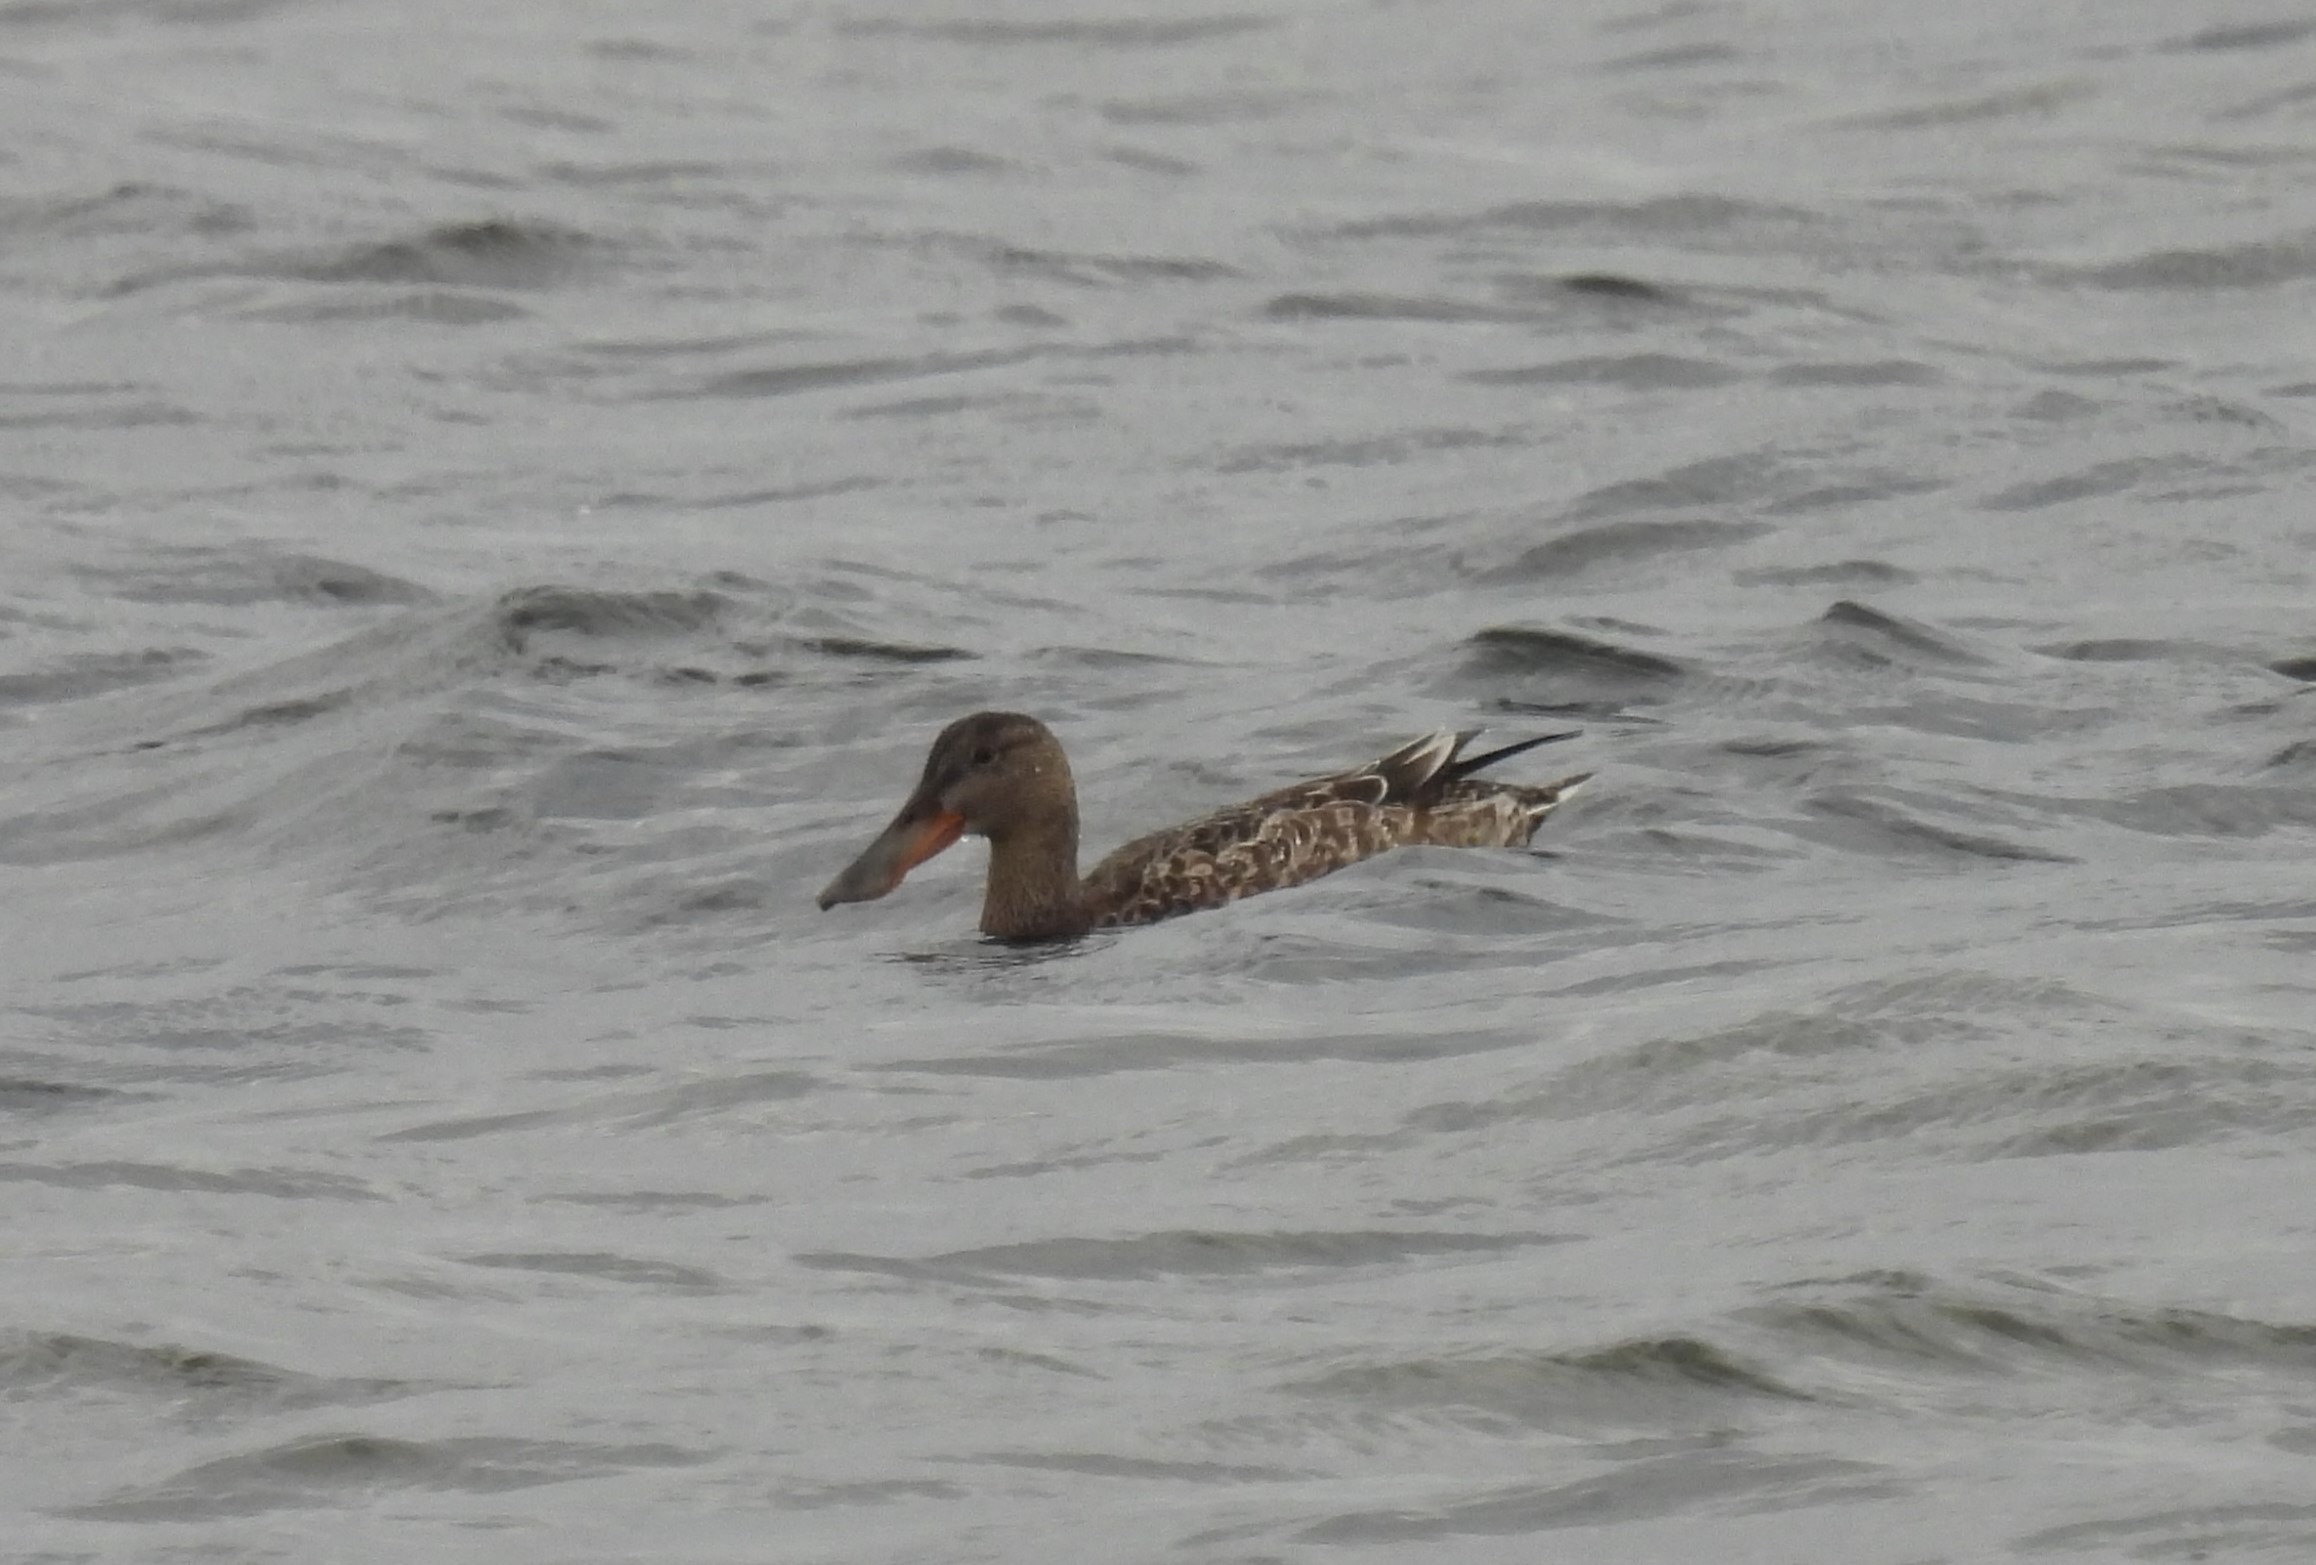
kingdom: Animalia
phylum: Chordata
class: Aves
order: Anseriformes
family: Anatidae
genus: Spatula
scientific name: Spatula clypeata
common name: Skeand
